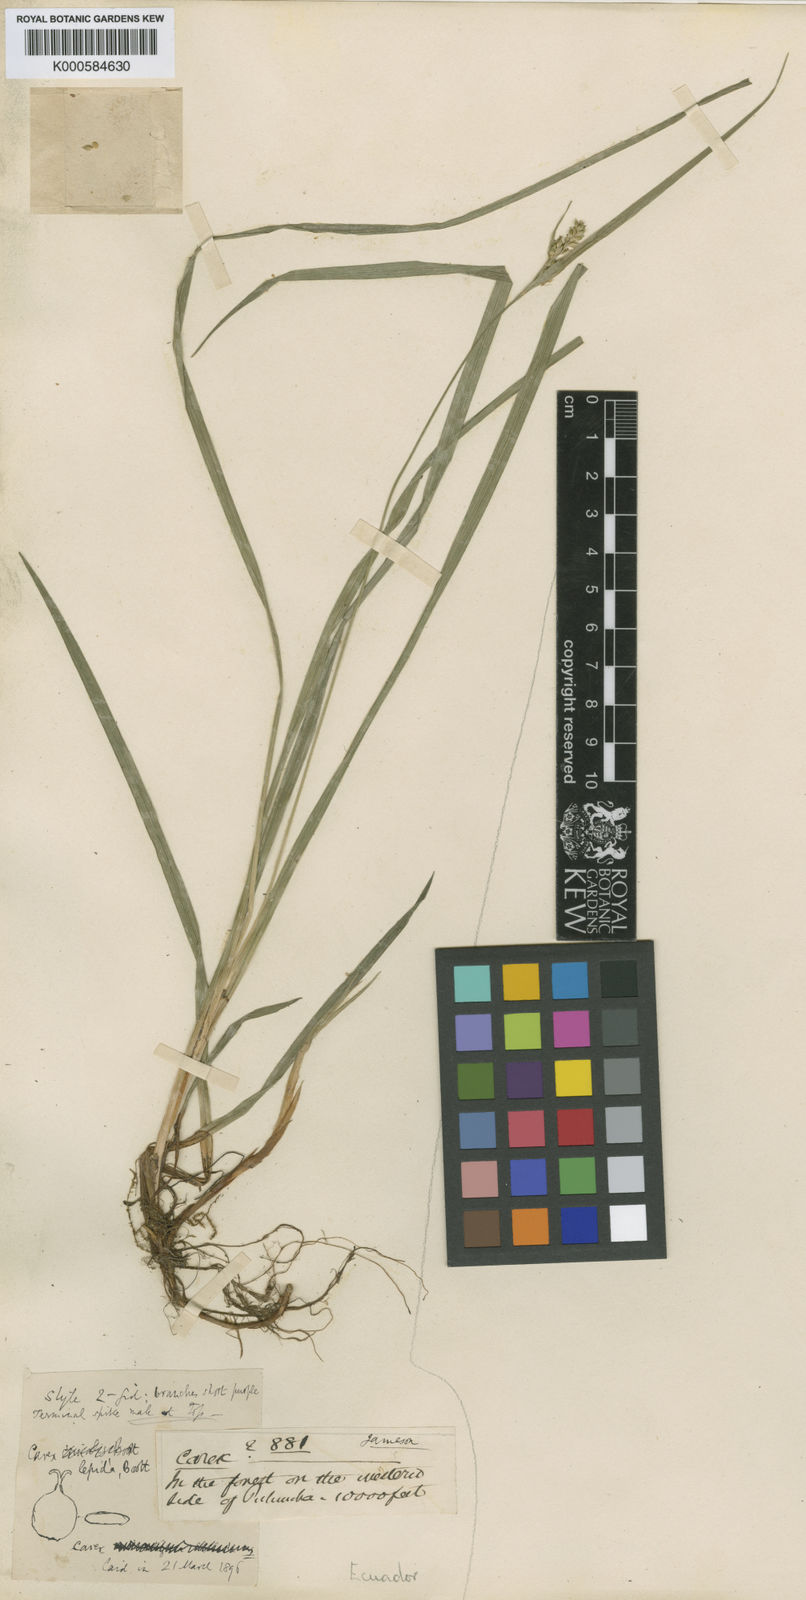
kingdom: Plantae
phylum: Tracheophyta
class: Liliopsida
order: Poales
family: Cyperaceae
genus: Carex
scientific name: Carex lepida
